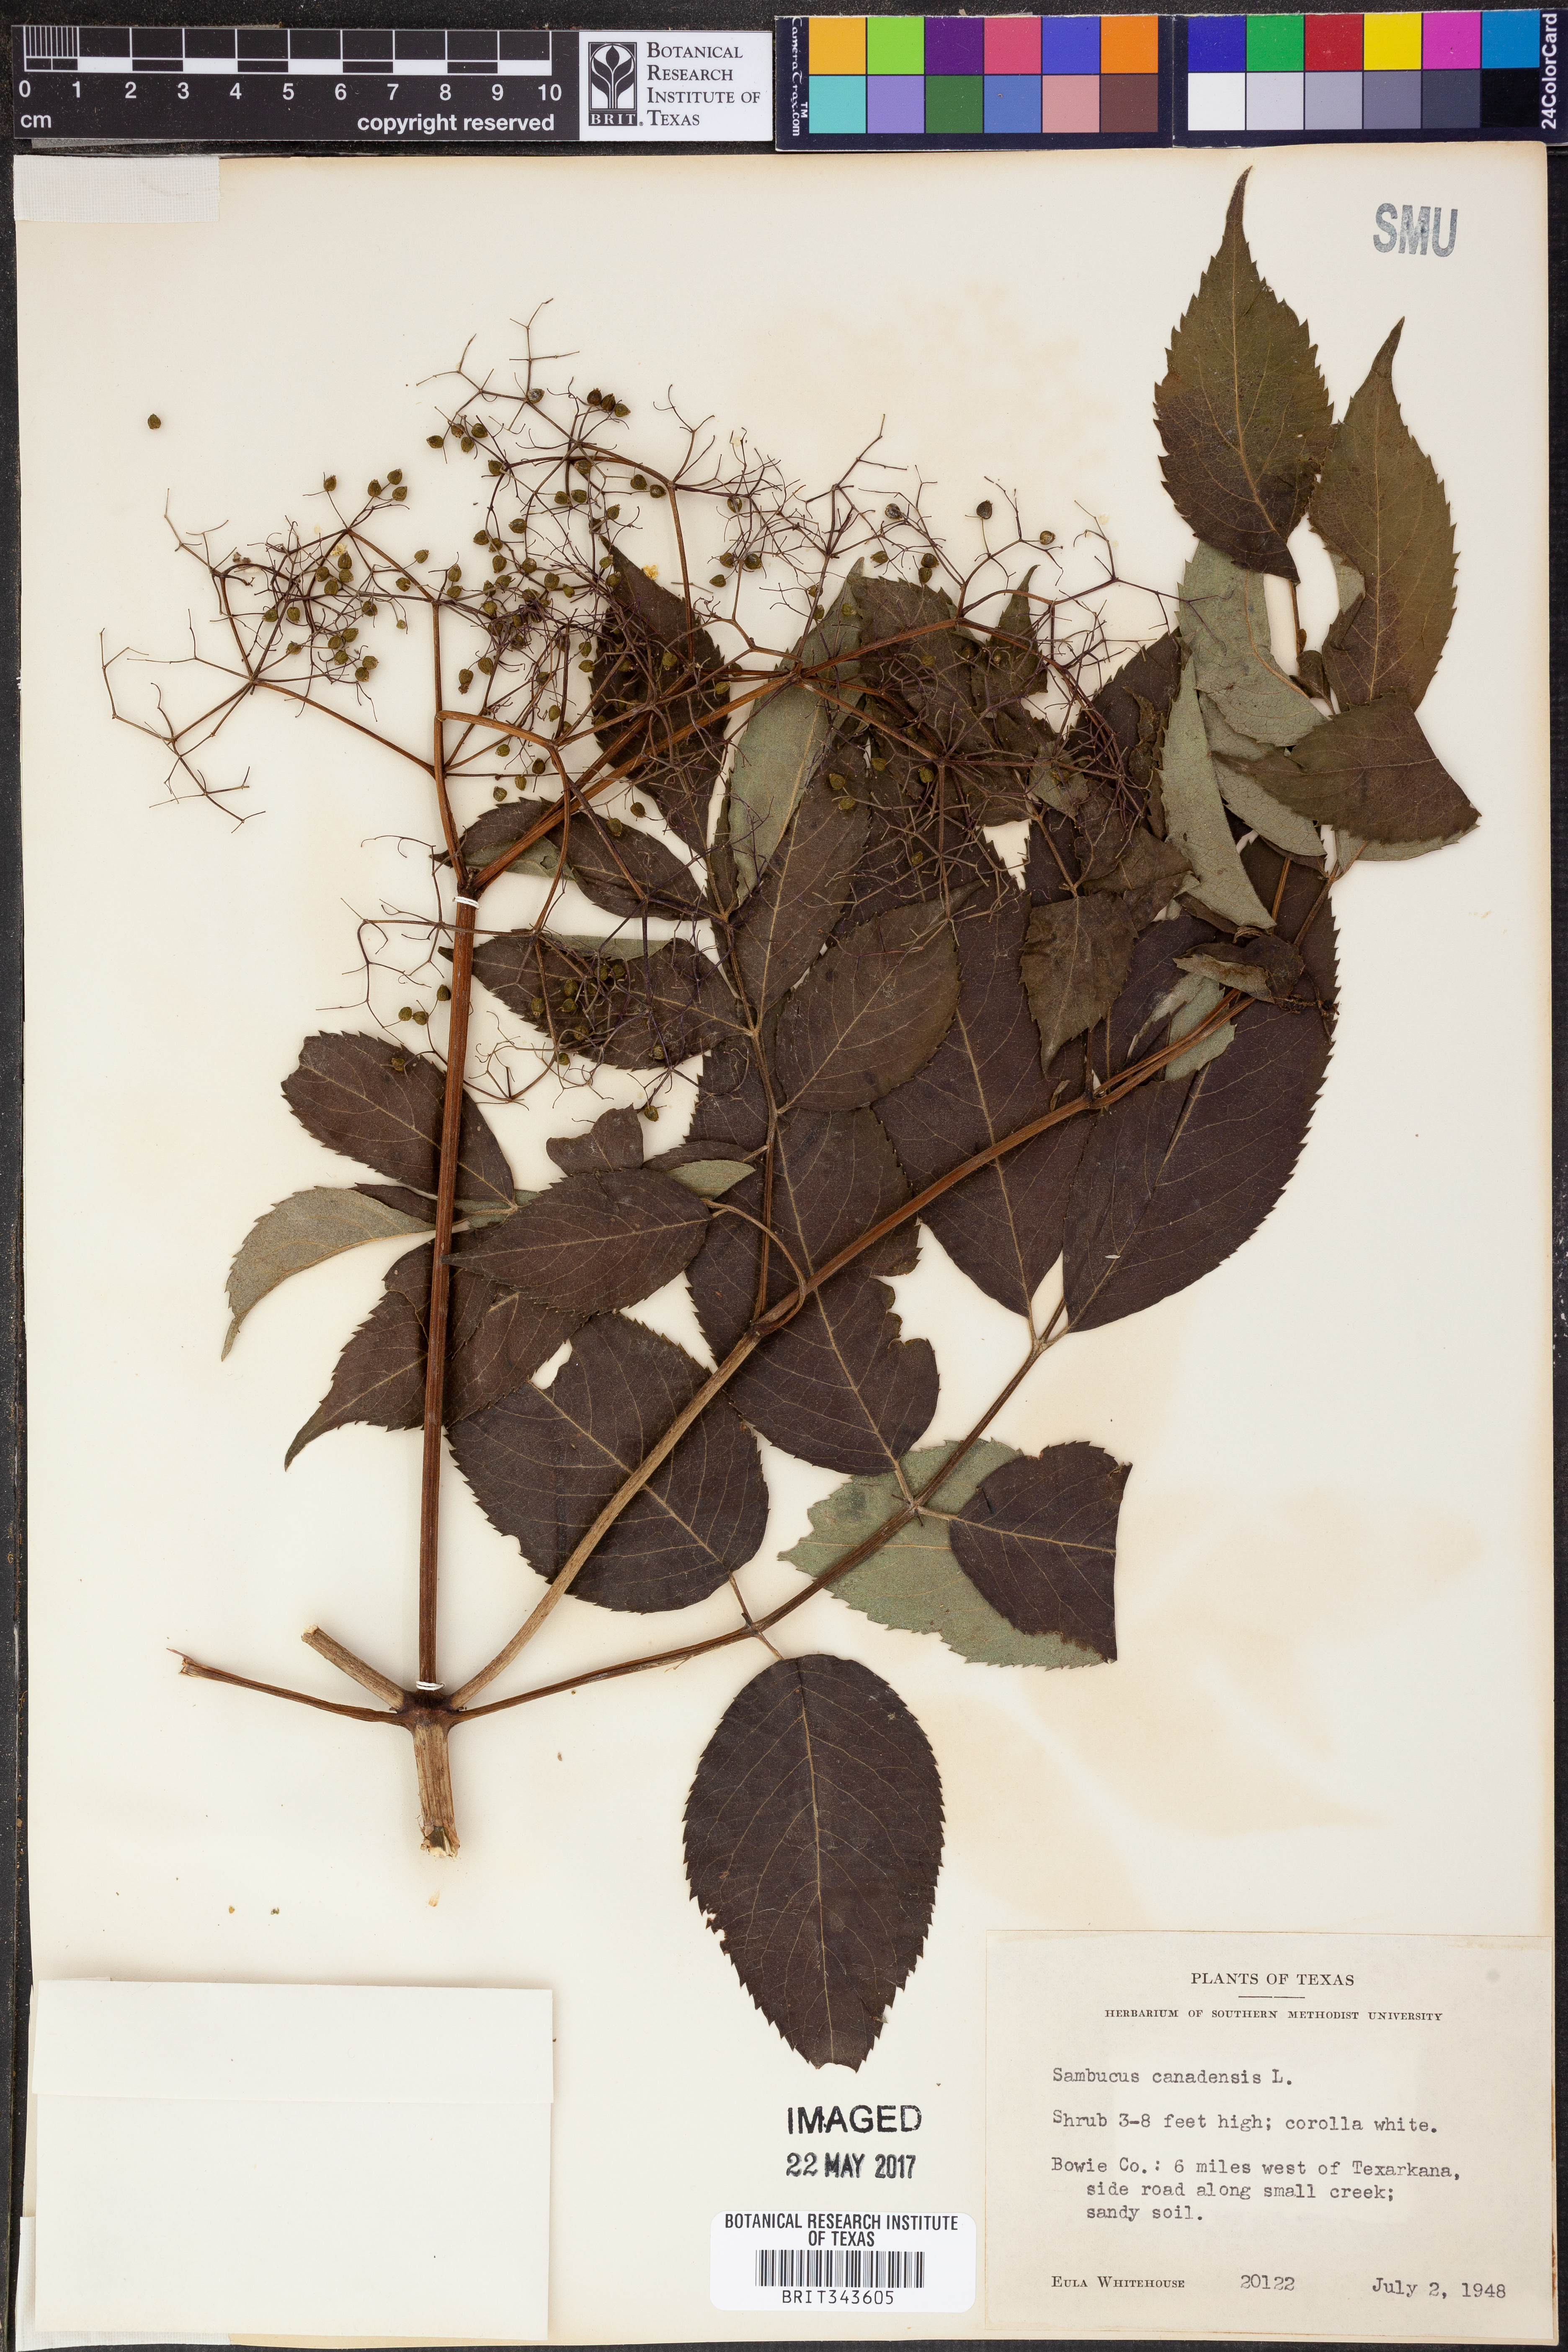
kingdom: Plantae
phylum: Tracheophyta
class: Magnoliopsida
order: Dipsacales
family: Viburnaceae
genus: Sambucus
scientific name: Sambucus canadensis
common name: American elder
